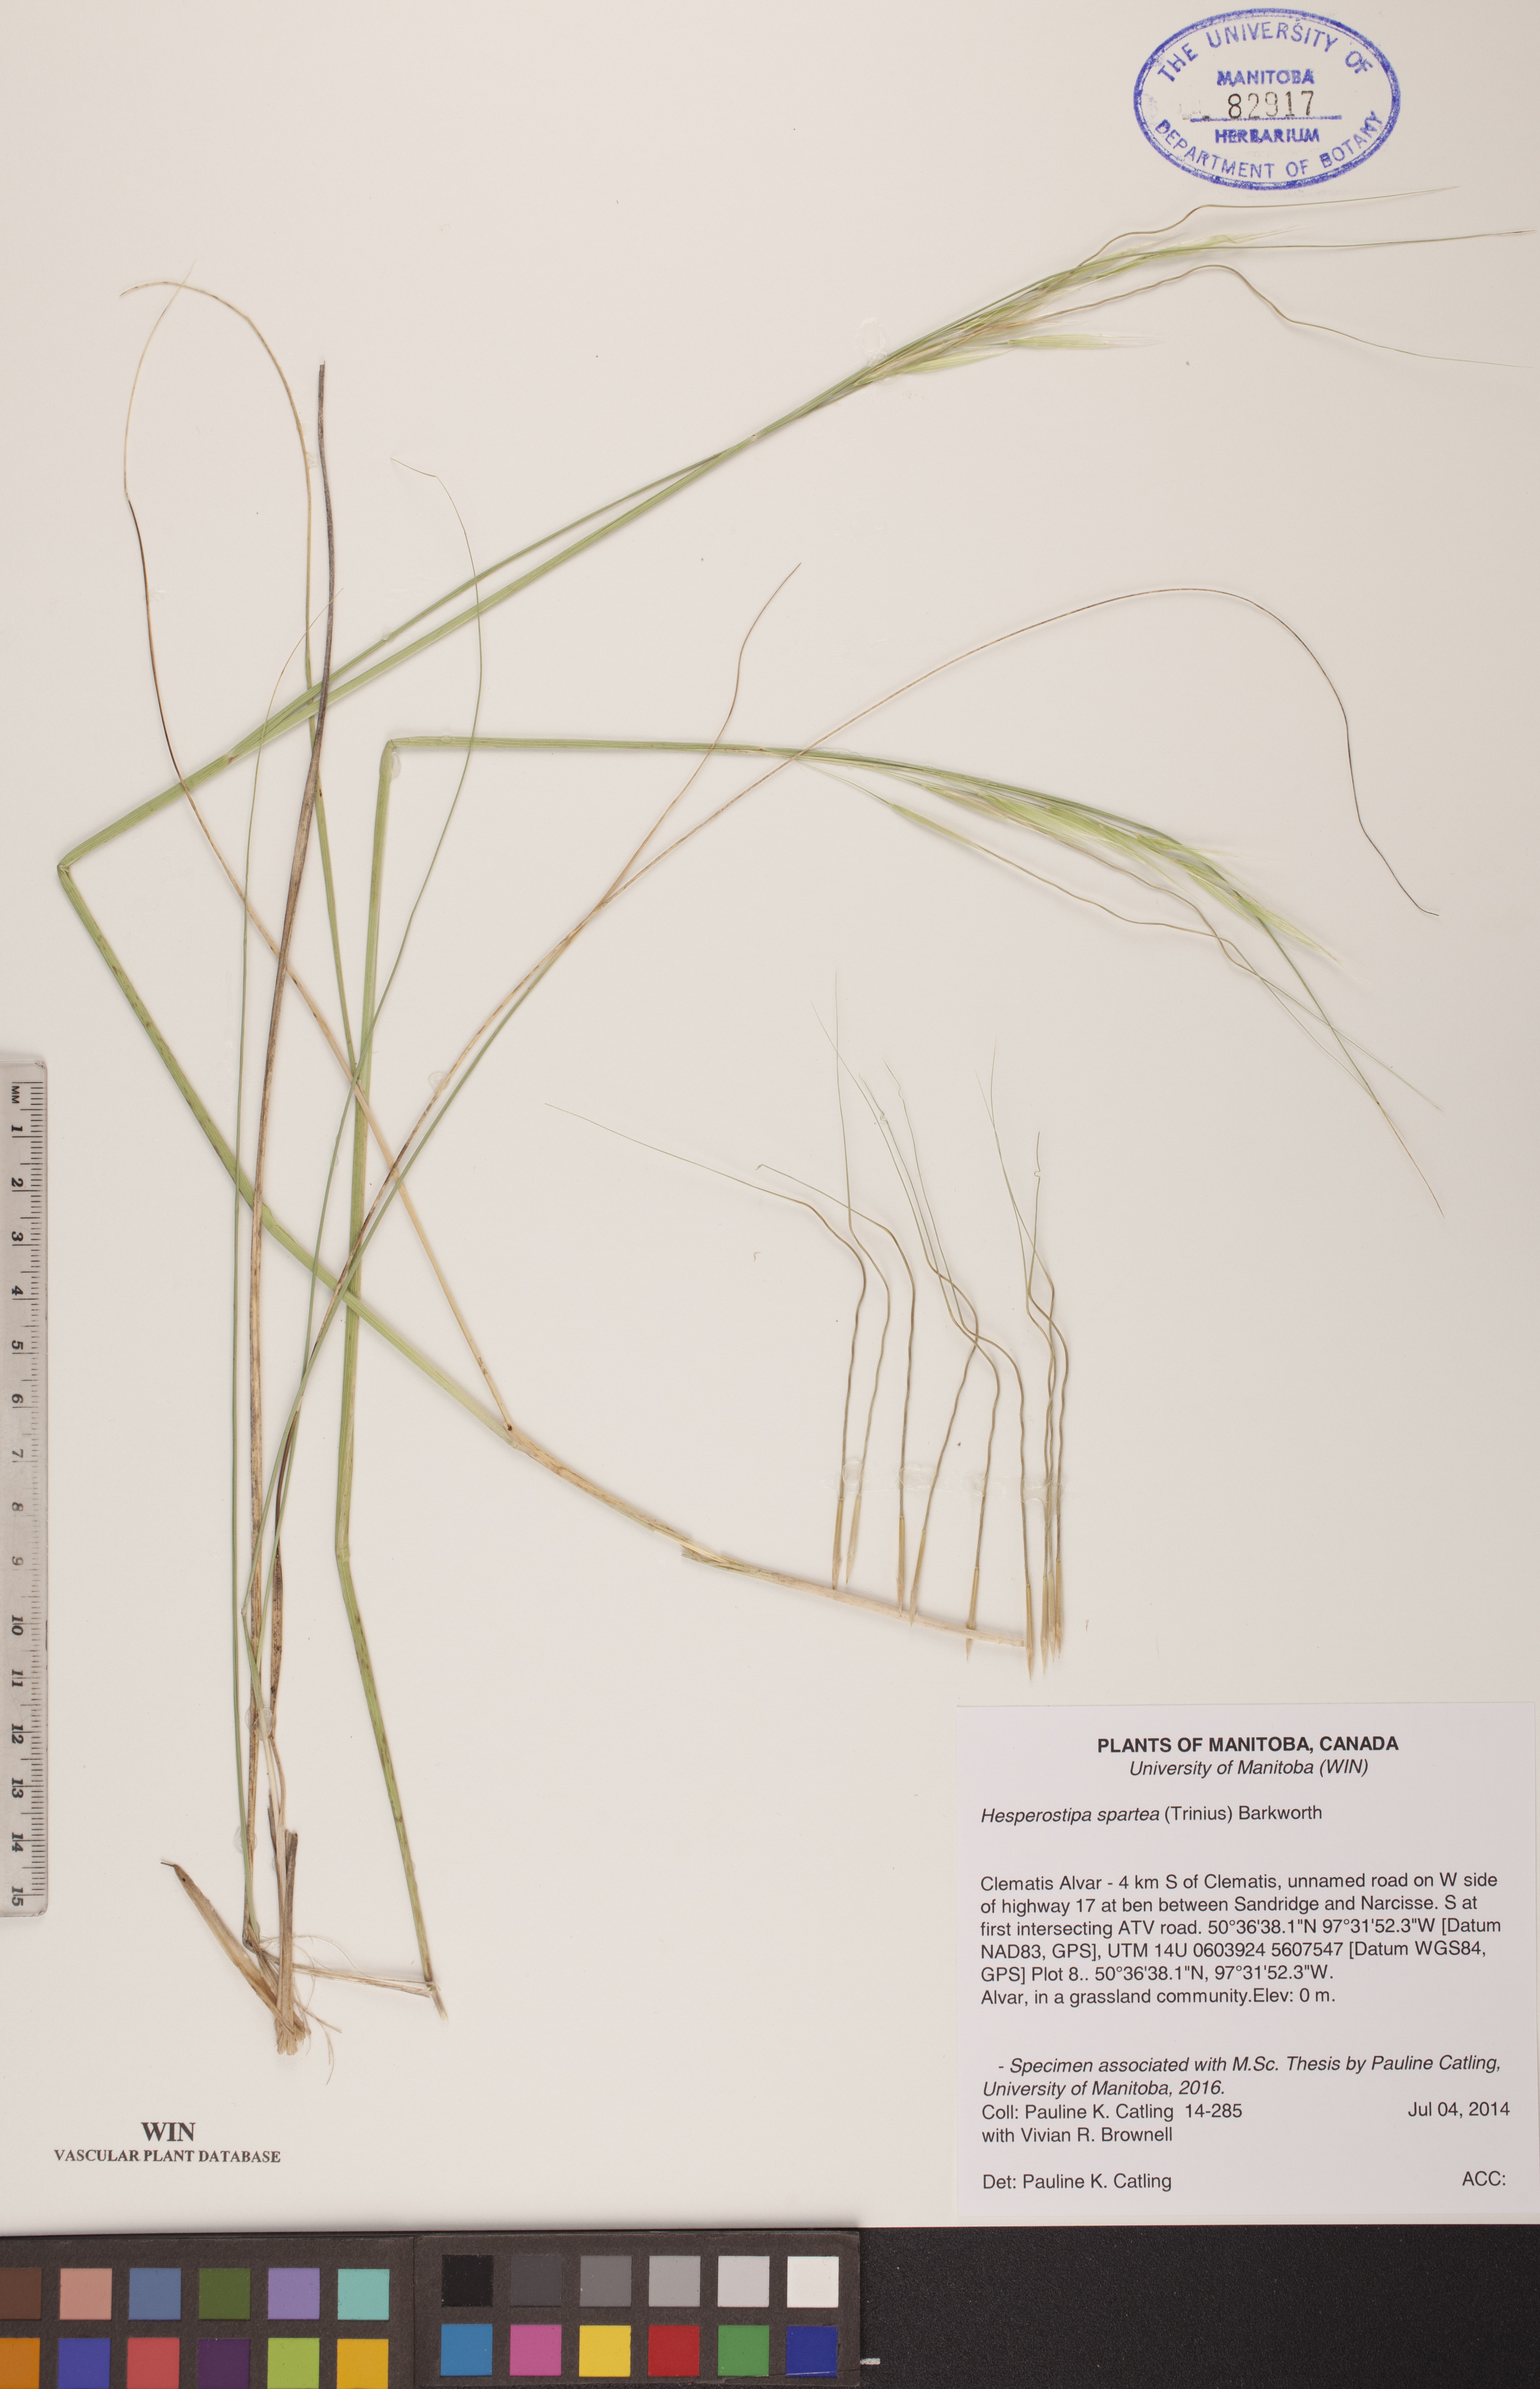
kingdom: Plantae
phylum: Tracheophyta
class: Liliopsida
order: Poales
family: Poaceae
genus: Hesperostipa
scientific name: Hesperostipa spartea
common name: Porcupine grass
